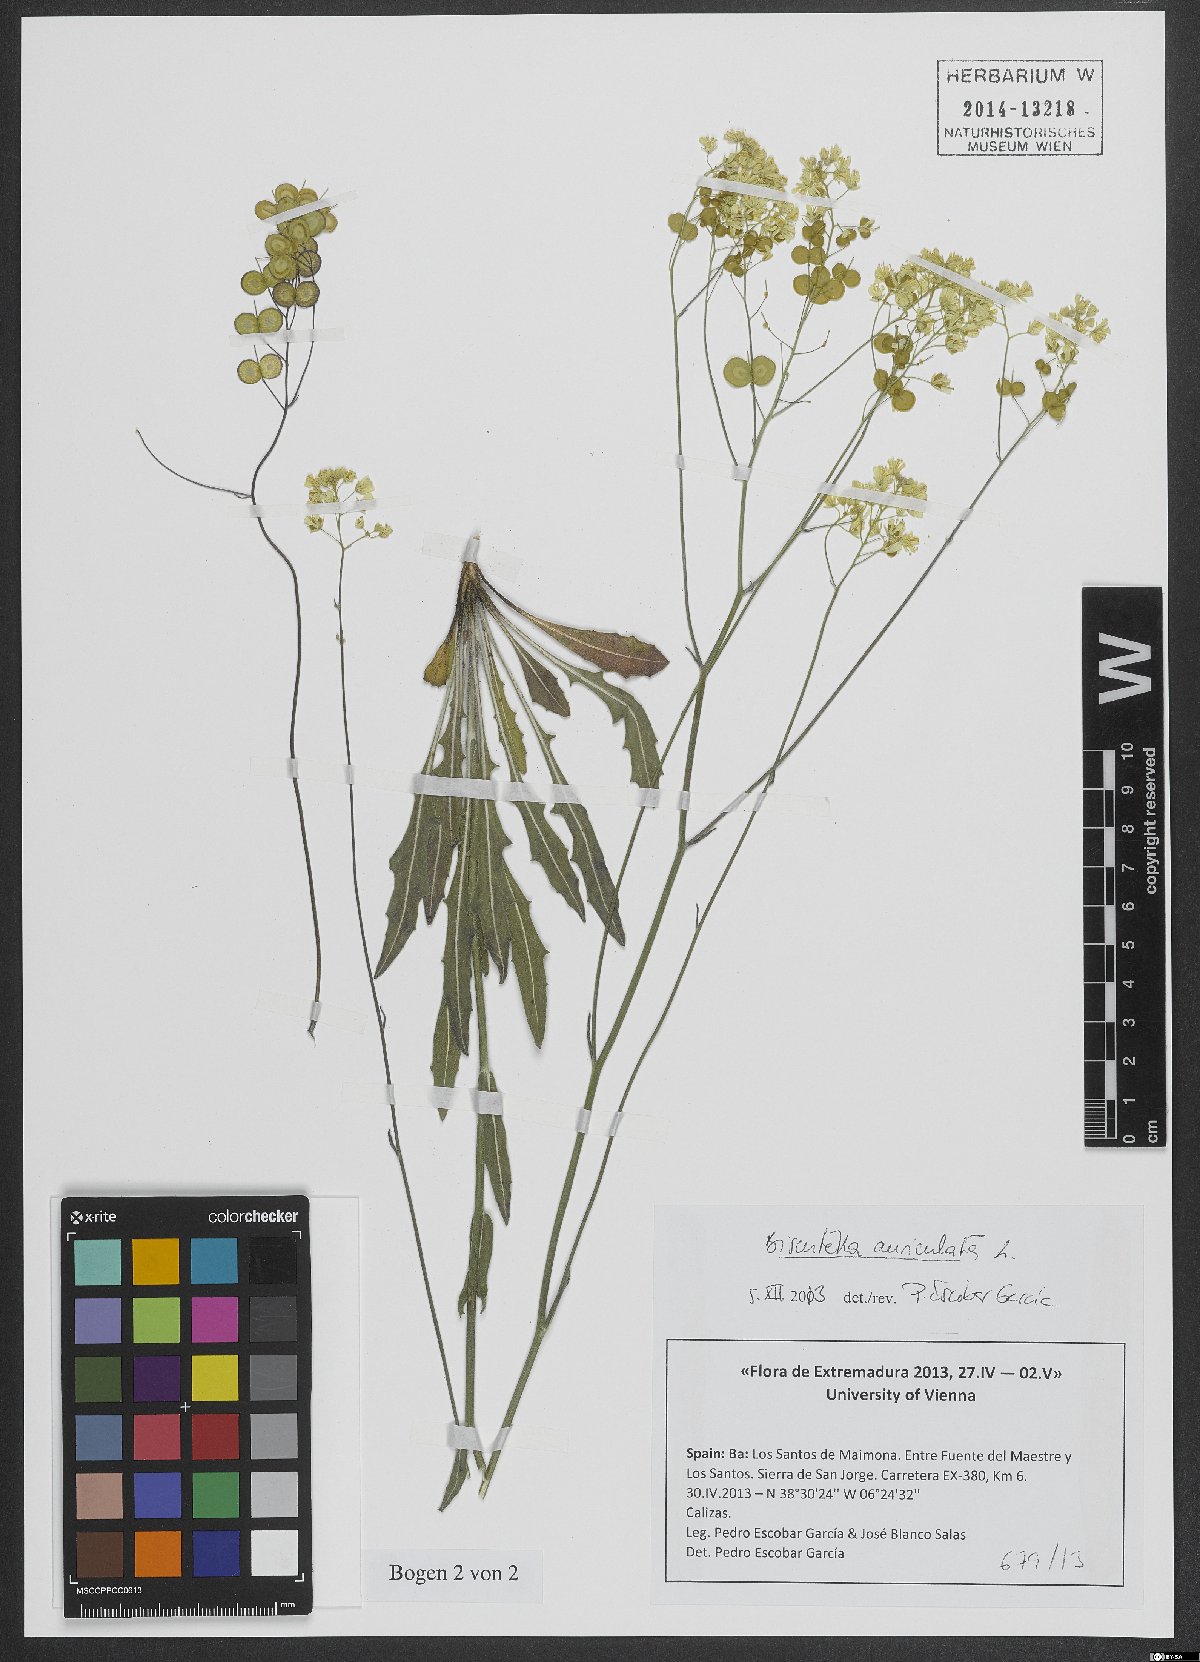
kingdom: Plantae
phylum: Tracheophyta
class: Magnoliopsida
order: Brassicales
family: Brassicaceae
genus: Biscutella
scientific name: Biscutella auriculata
